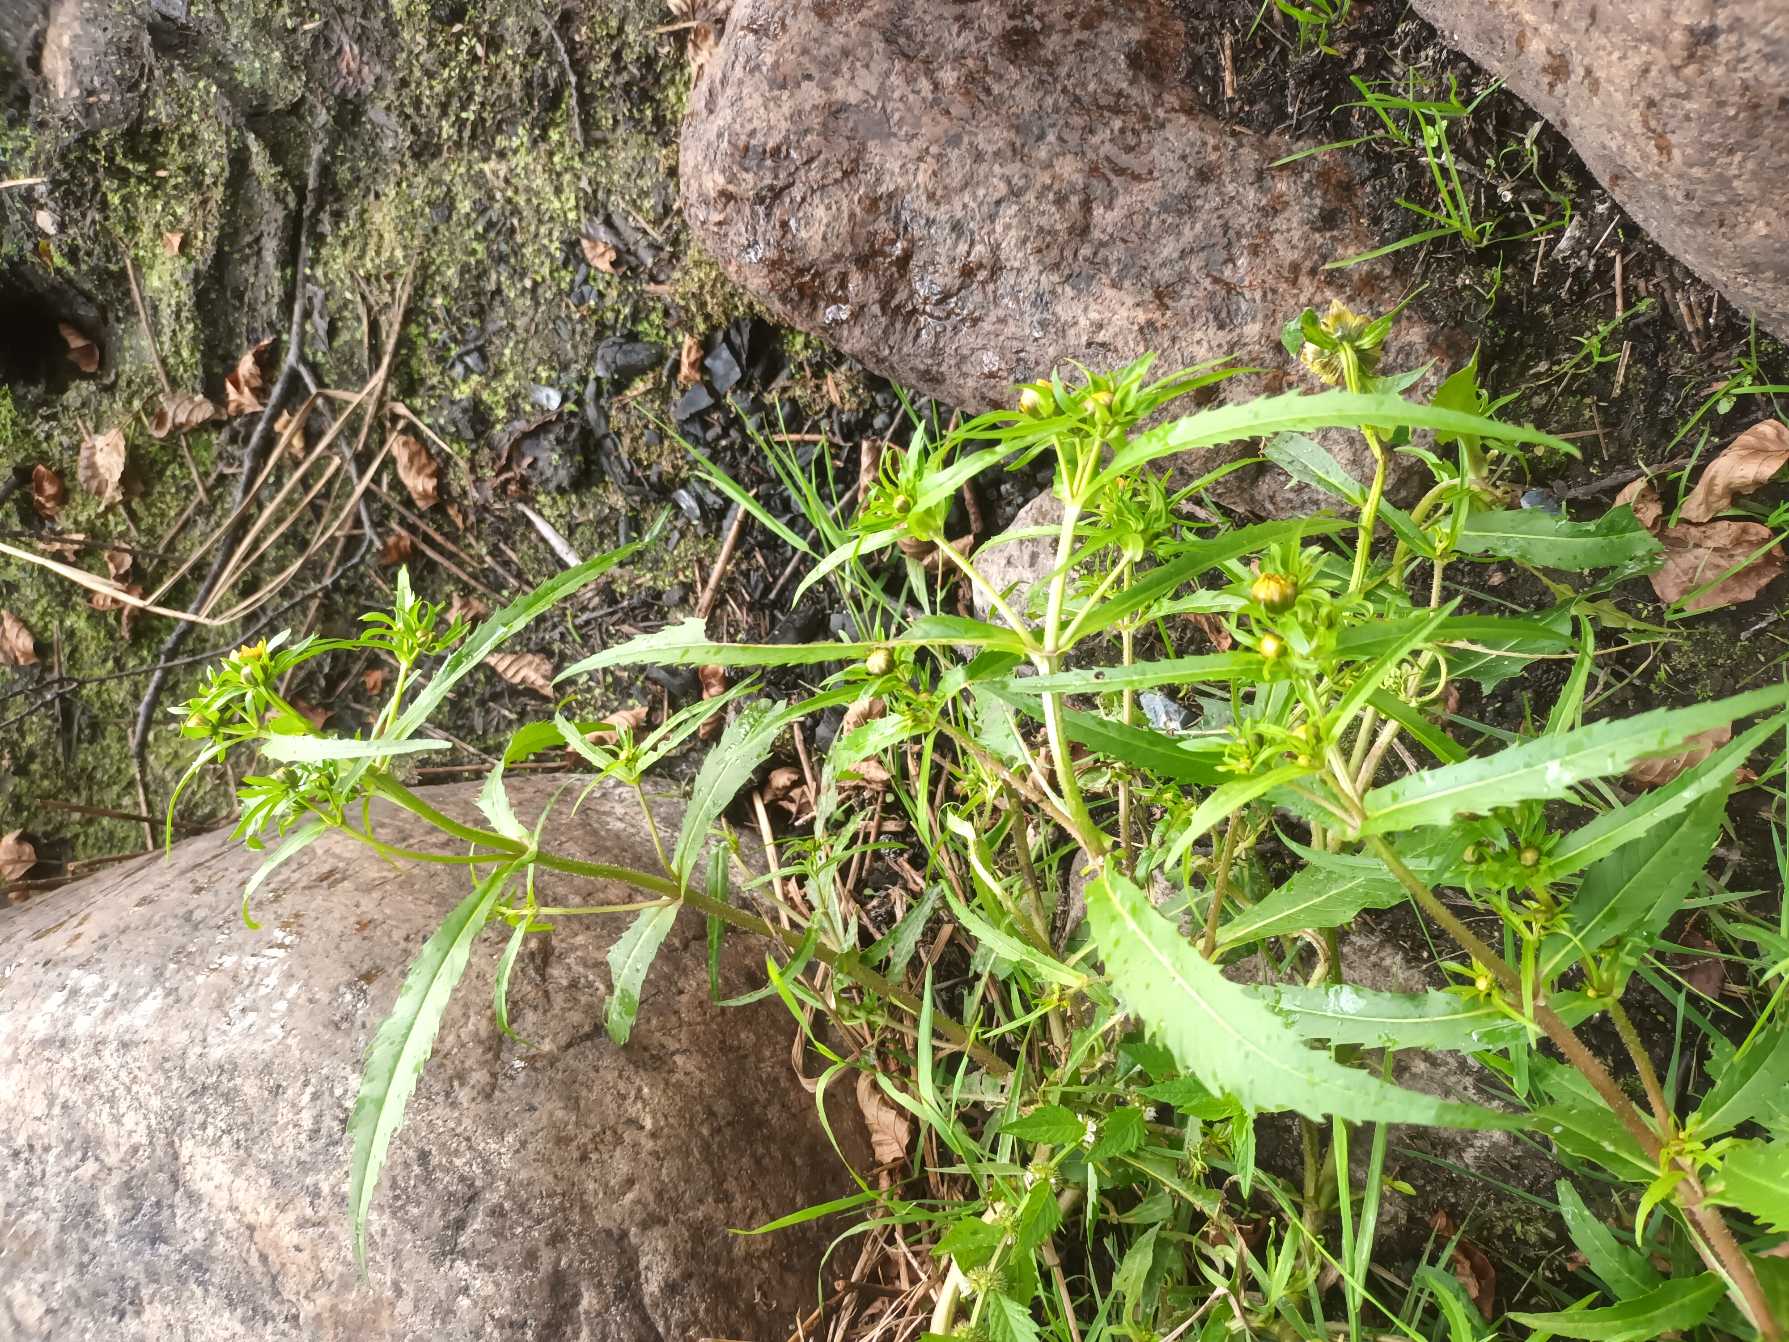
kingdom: Plantae
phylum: Tracheophyta
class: Magnoliopsida
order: Asterales
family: Asteraceae
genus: Bidens
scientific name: Bidens cernua
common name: Nikkende brøndsel
